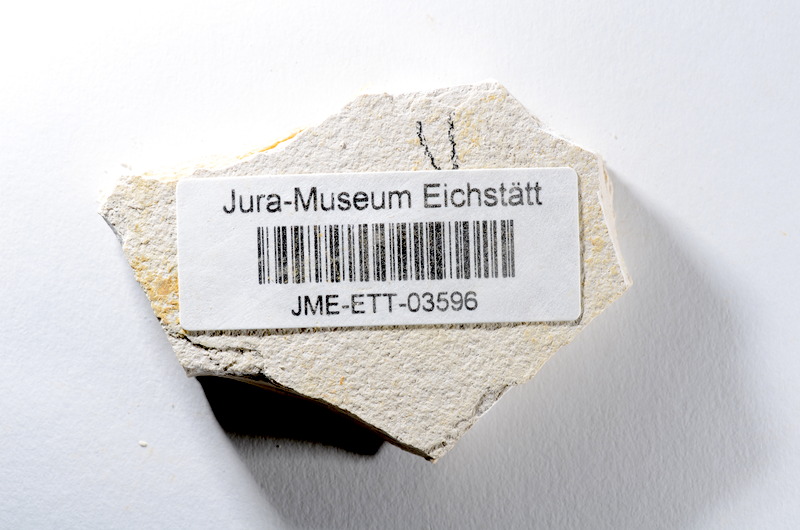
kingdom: Animalia
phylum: Chordata
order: Salmoniformes
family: Orthogonikleithridae
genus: Orthogonikleithrus
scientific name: Orthogonikleithrus hoelli
